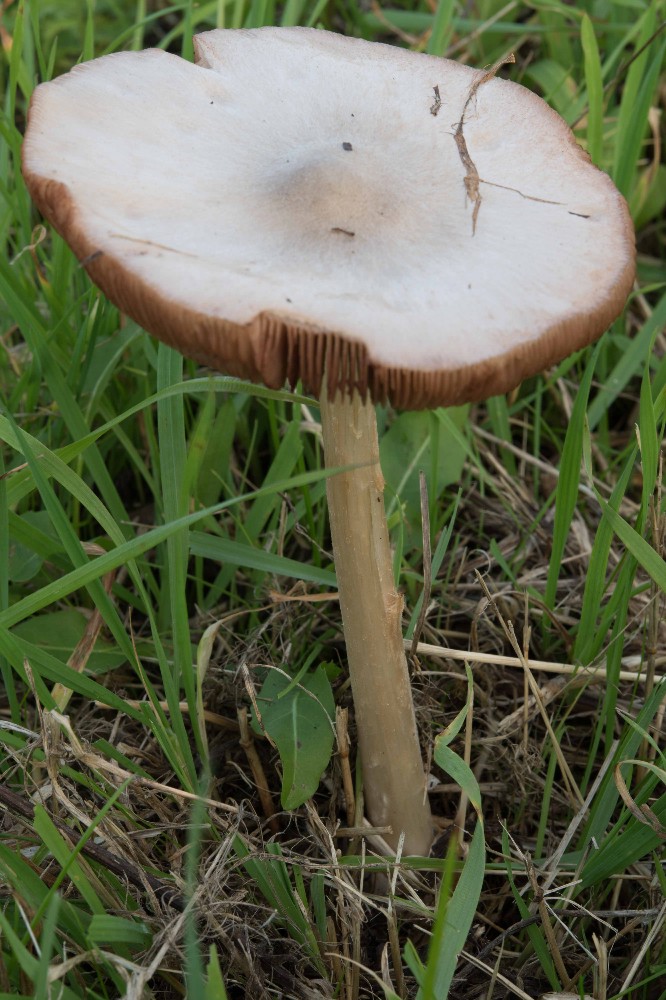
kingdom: Fungi
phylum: Basidiomycota
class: Agaricomycetes
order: Agaricales
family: Pluteaceae
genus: Volvopluteus
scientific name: Volvopluteus gloiocephalus
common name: høj posesvamp
